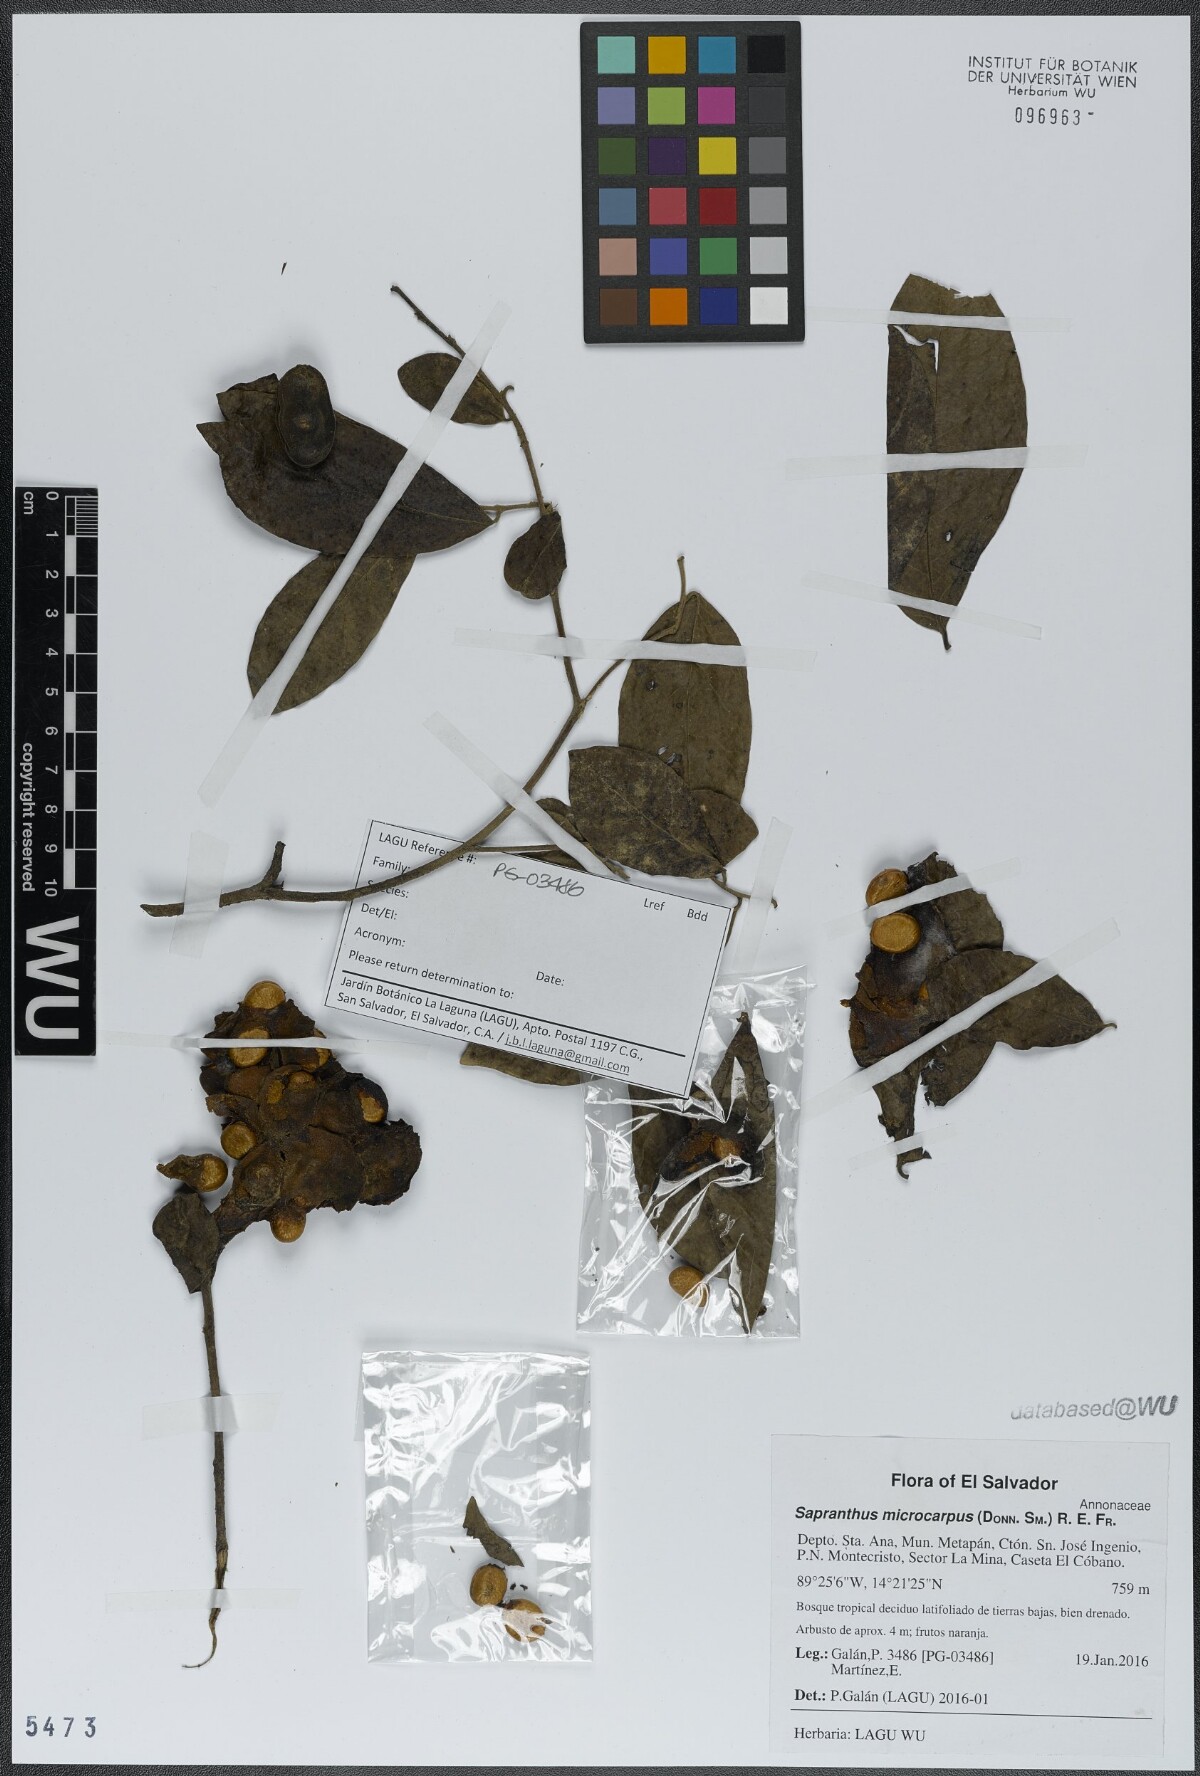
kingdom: Plantae
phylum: Tracheophyta
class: Magnoliopsida
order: Magnoliales
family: Annonaceae
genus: Sapranthus
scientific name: Sapranthus microcarpus
